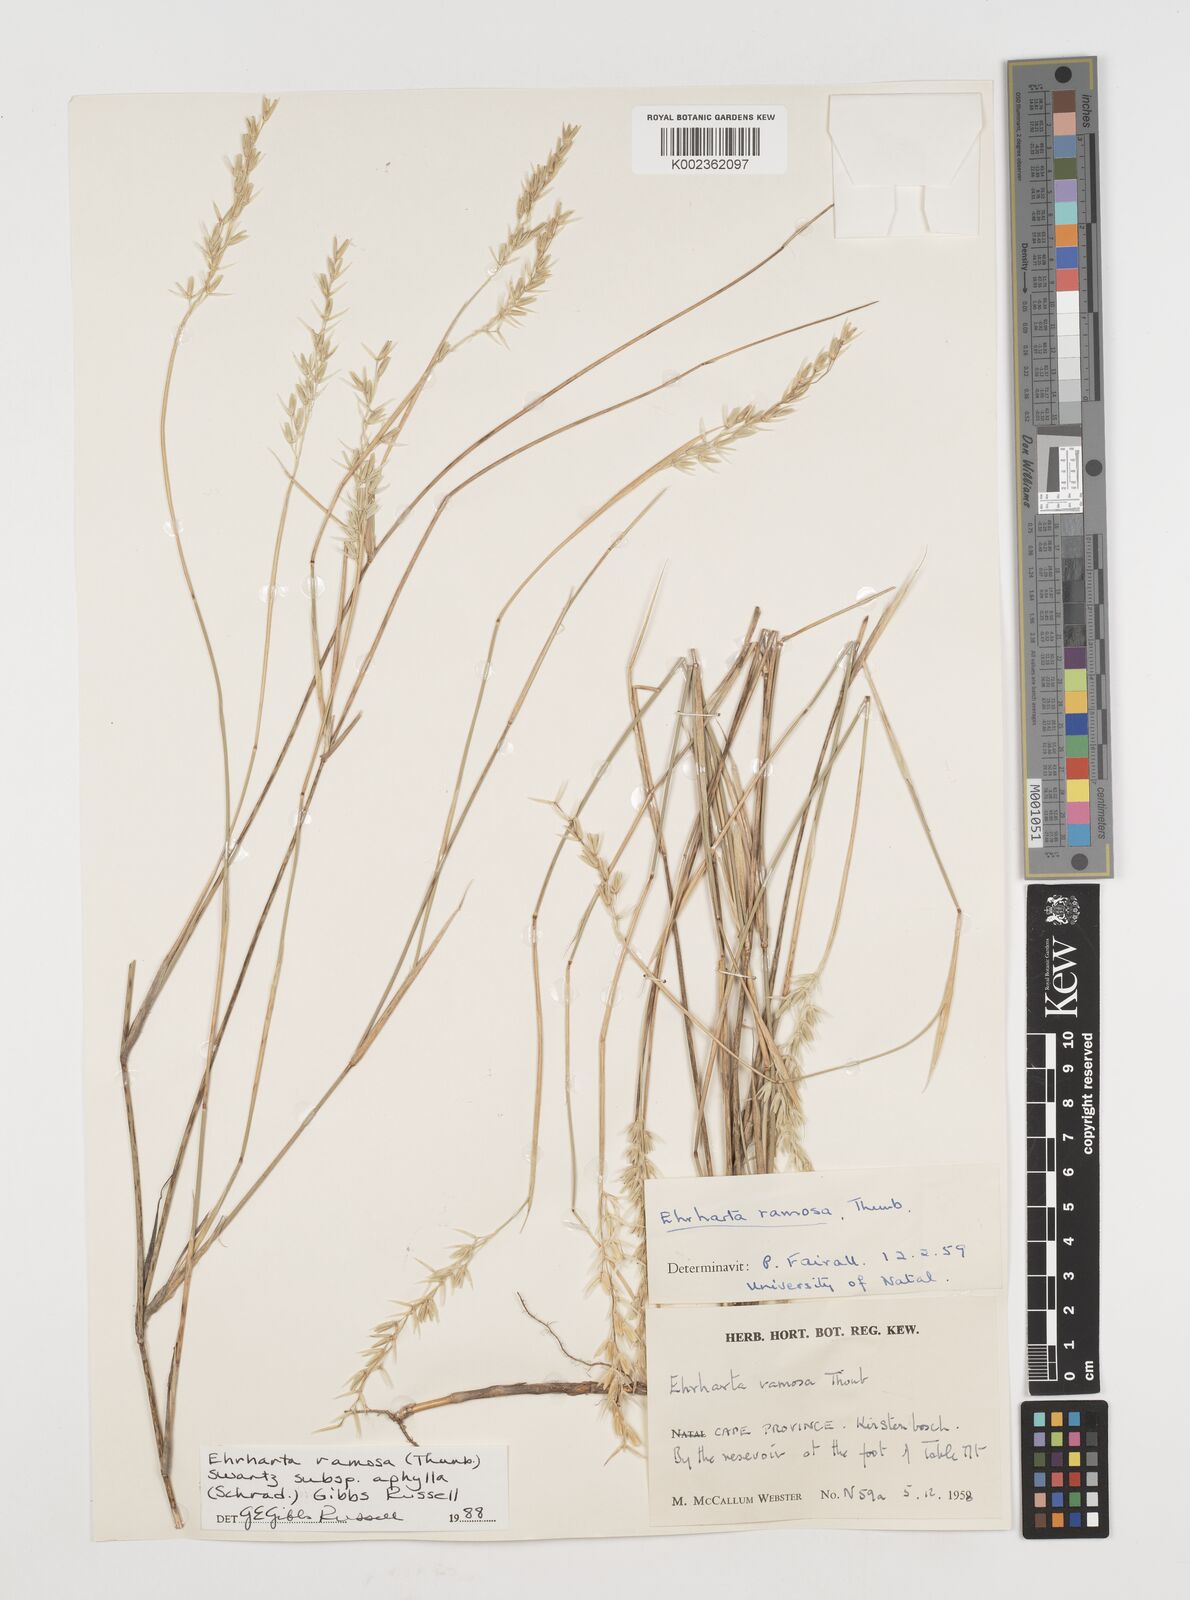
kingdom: Plantae
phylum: Tracheophyta
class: Liliopsida
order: Poales
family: Poaceae
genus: Ehrharta
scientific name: Ehrharta digyna
